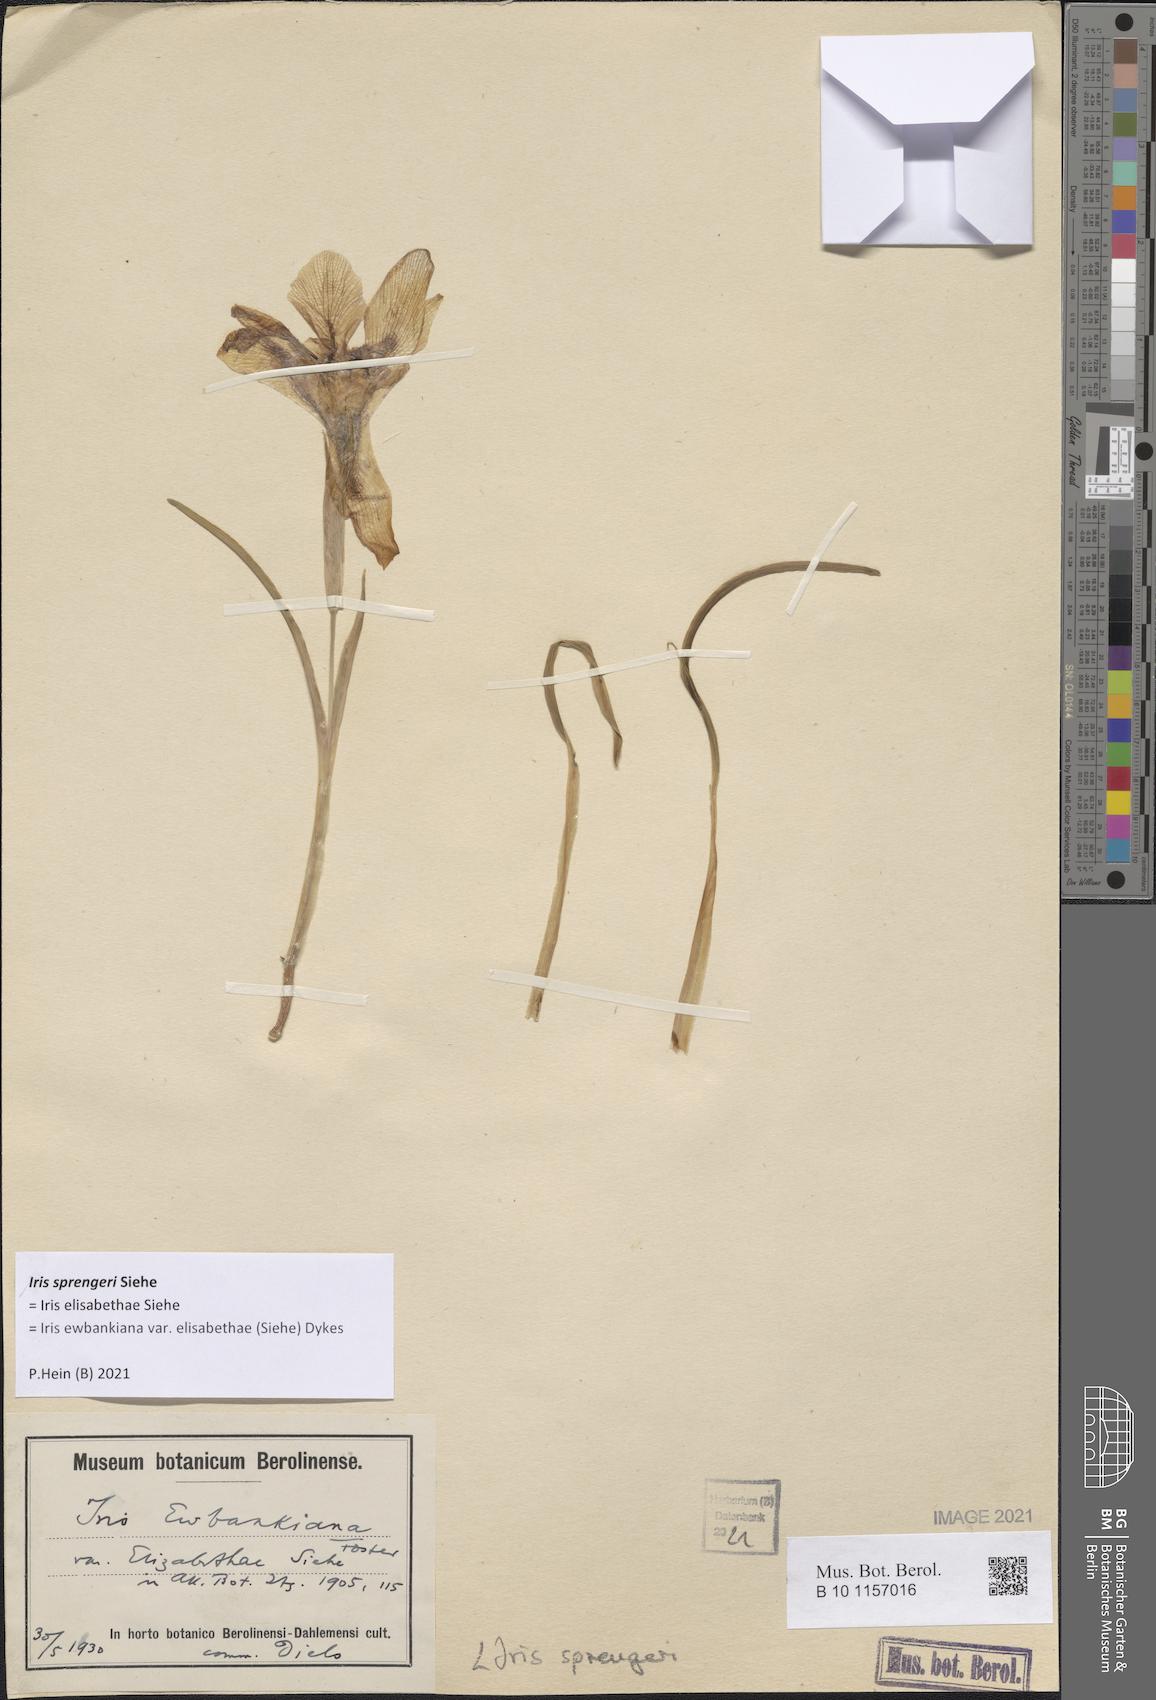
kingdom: Plantae
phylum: Tracheophyta
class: Liliopsida
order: Asparagales
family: Iridaceae
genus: Iris
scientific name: Iris sprengeri
